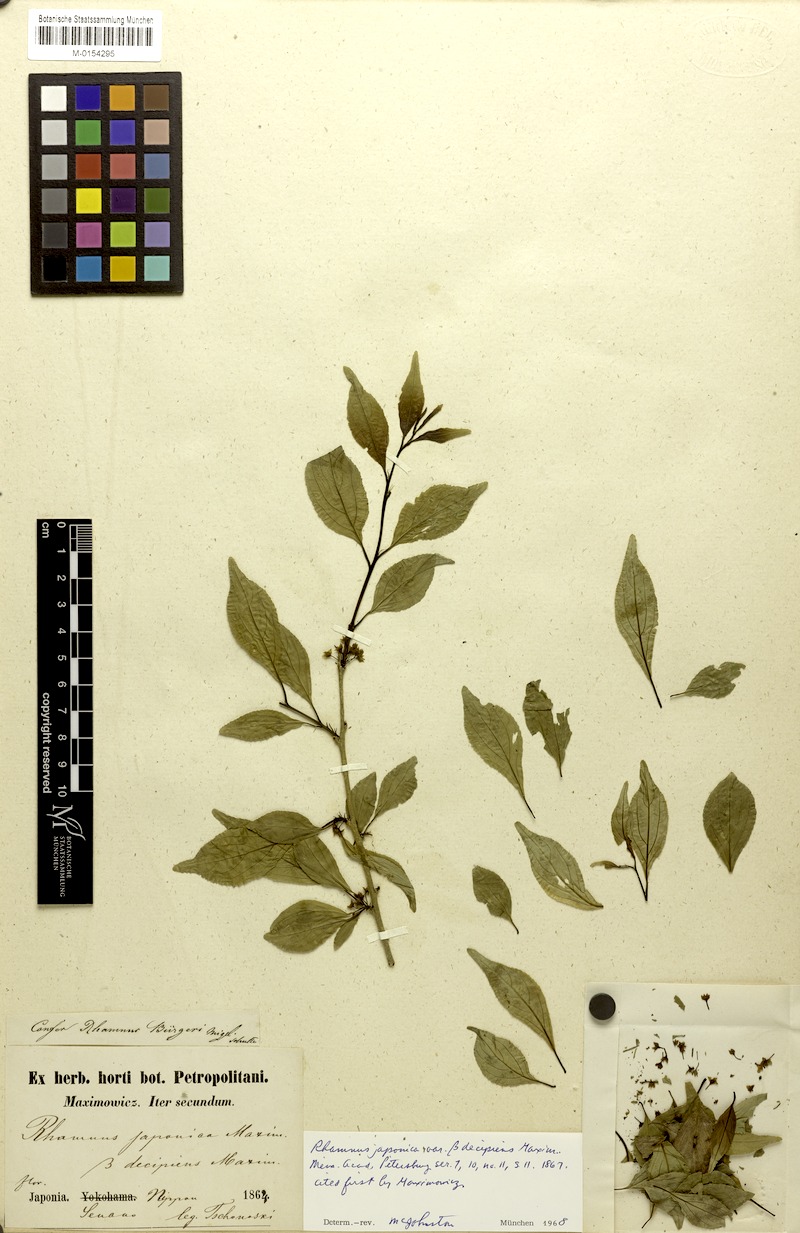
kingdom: Plantae
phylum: Tracheophyta
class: Magnoliopsida
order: Rosales
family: Rhamnaceae
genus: Rhamnus
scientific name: Rhamnus japonica
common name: Japanese buckthorn
